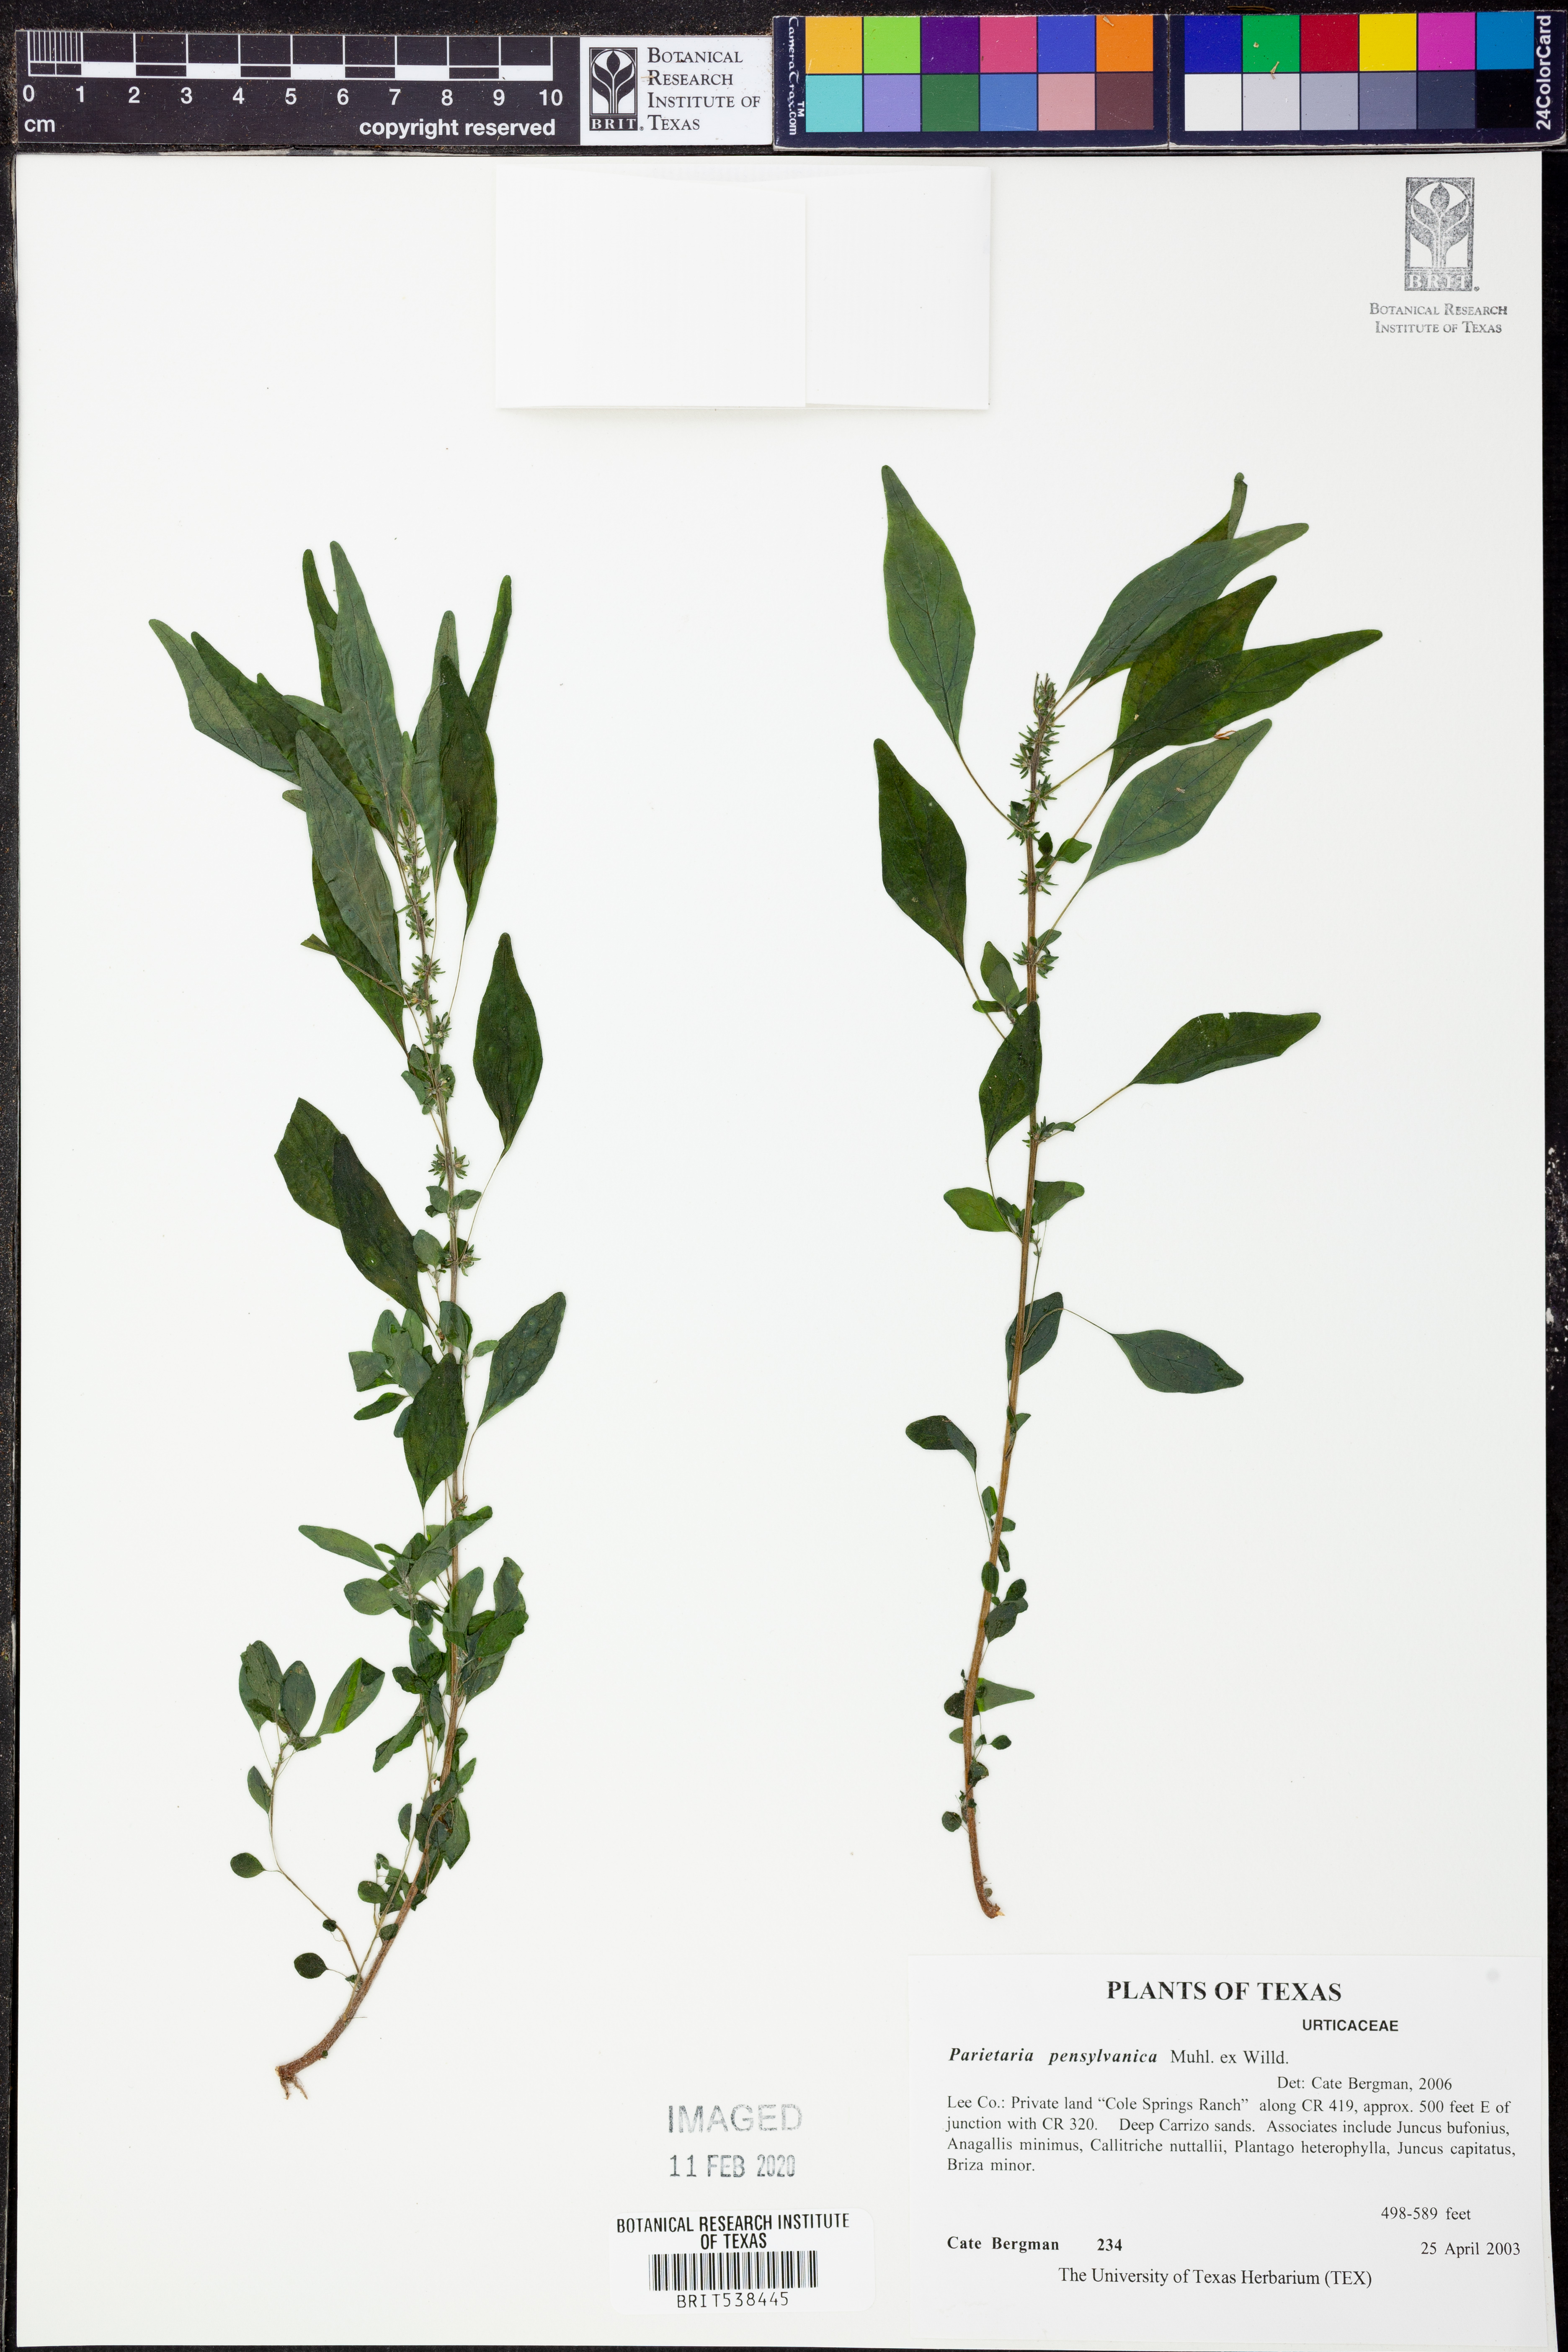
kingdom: Plantae
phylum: Tracheophyta
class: Magnoliopsida
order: Rosales
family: Urticaceae
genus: Parietaria
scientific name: Parietaria pensylvanica
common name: Pennsylvania pellitory
